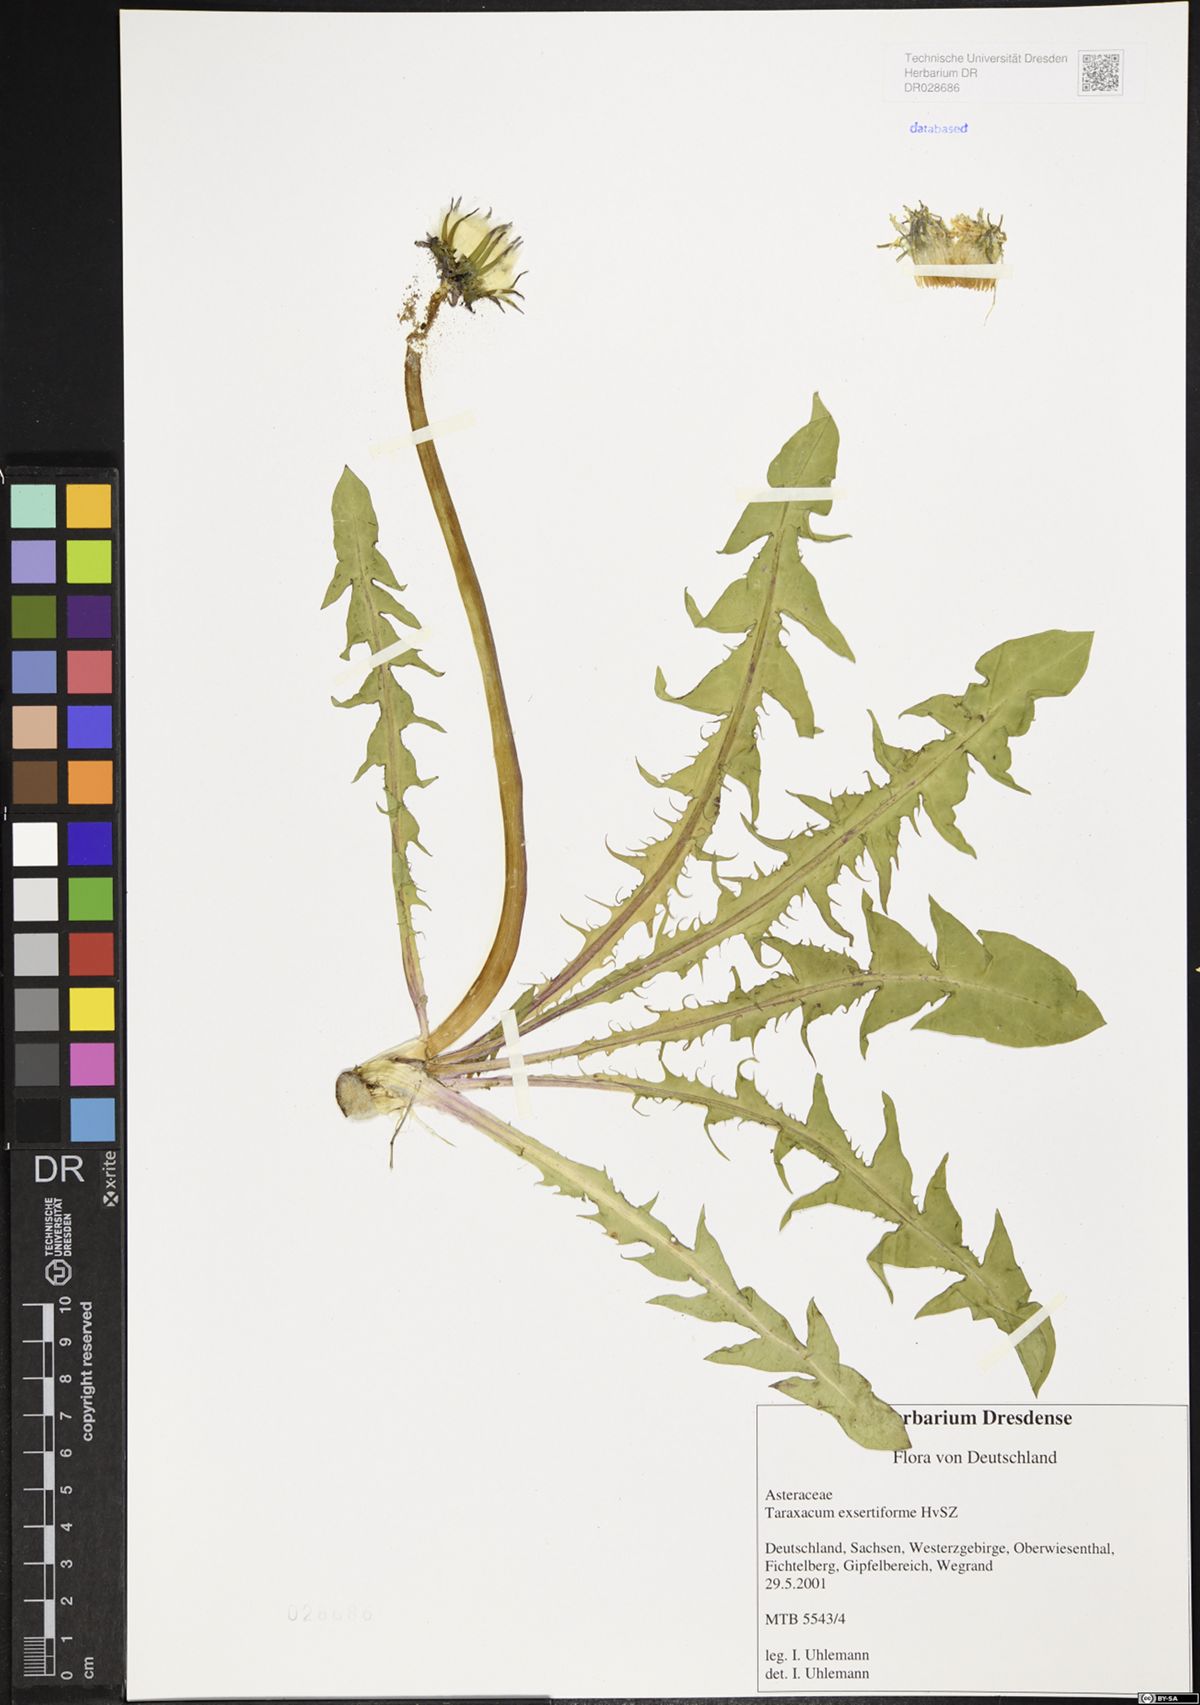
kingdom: Plantae
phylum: Tracheophyta
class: Magnoliopsida
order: Asterales
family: Asteraceae
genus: Taraxacum
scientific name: Taraxacum exsertiforme
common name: Erect-bracted dandelion
